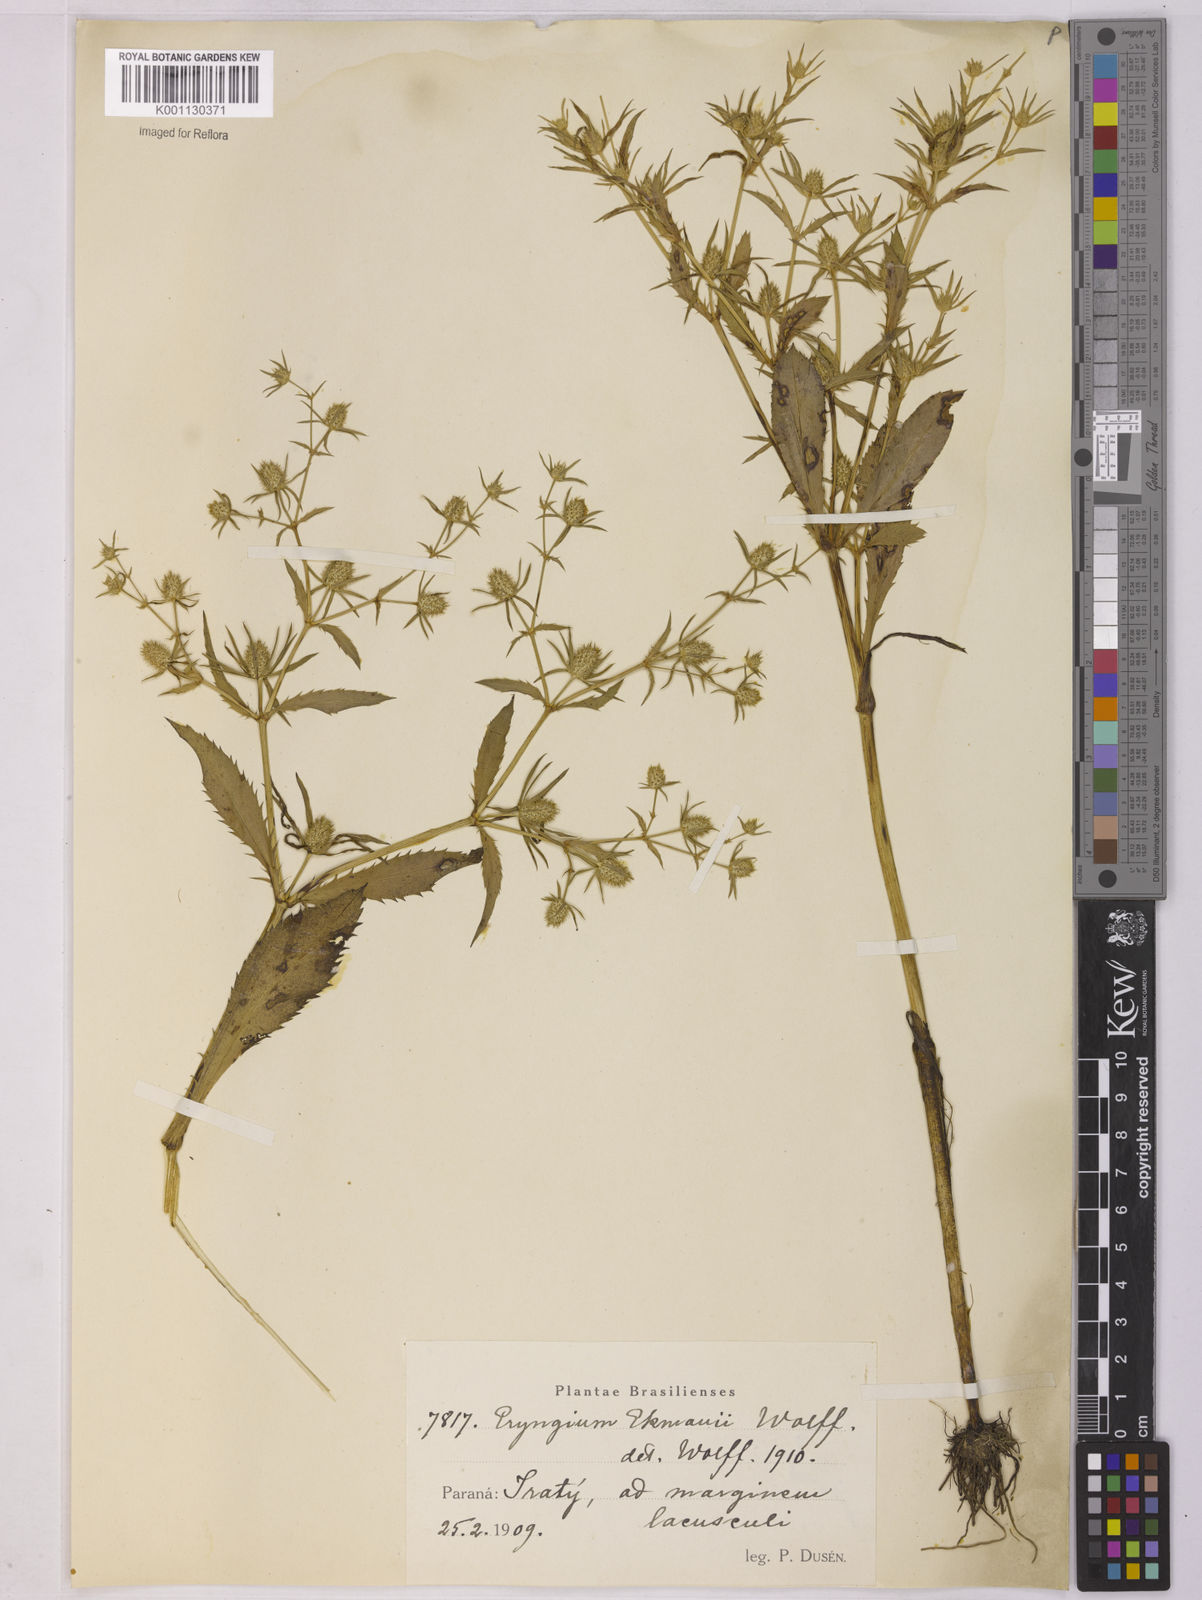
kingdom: Plantae
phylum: Tracheophyta
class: Magnoliopsida
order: Apiales
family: Apiaceae
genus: Eryngium
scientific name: Eryngium ekmanii
